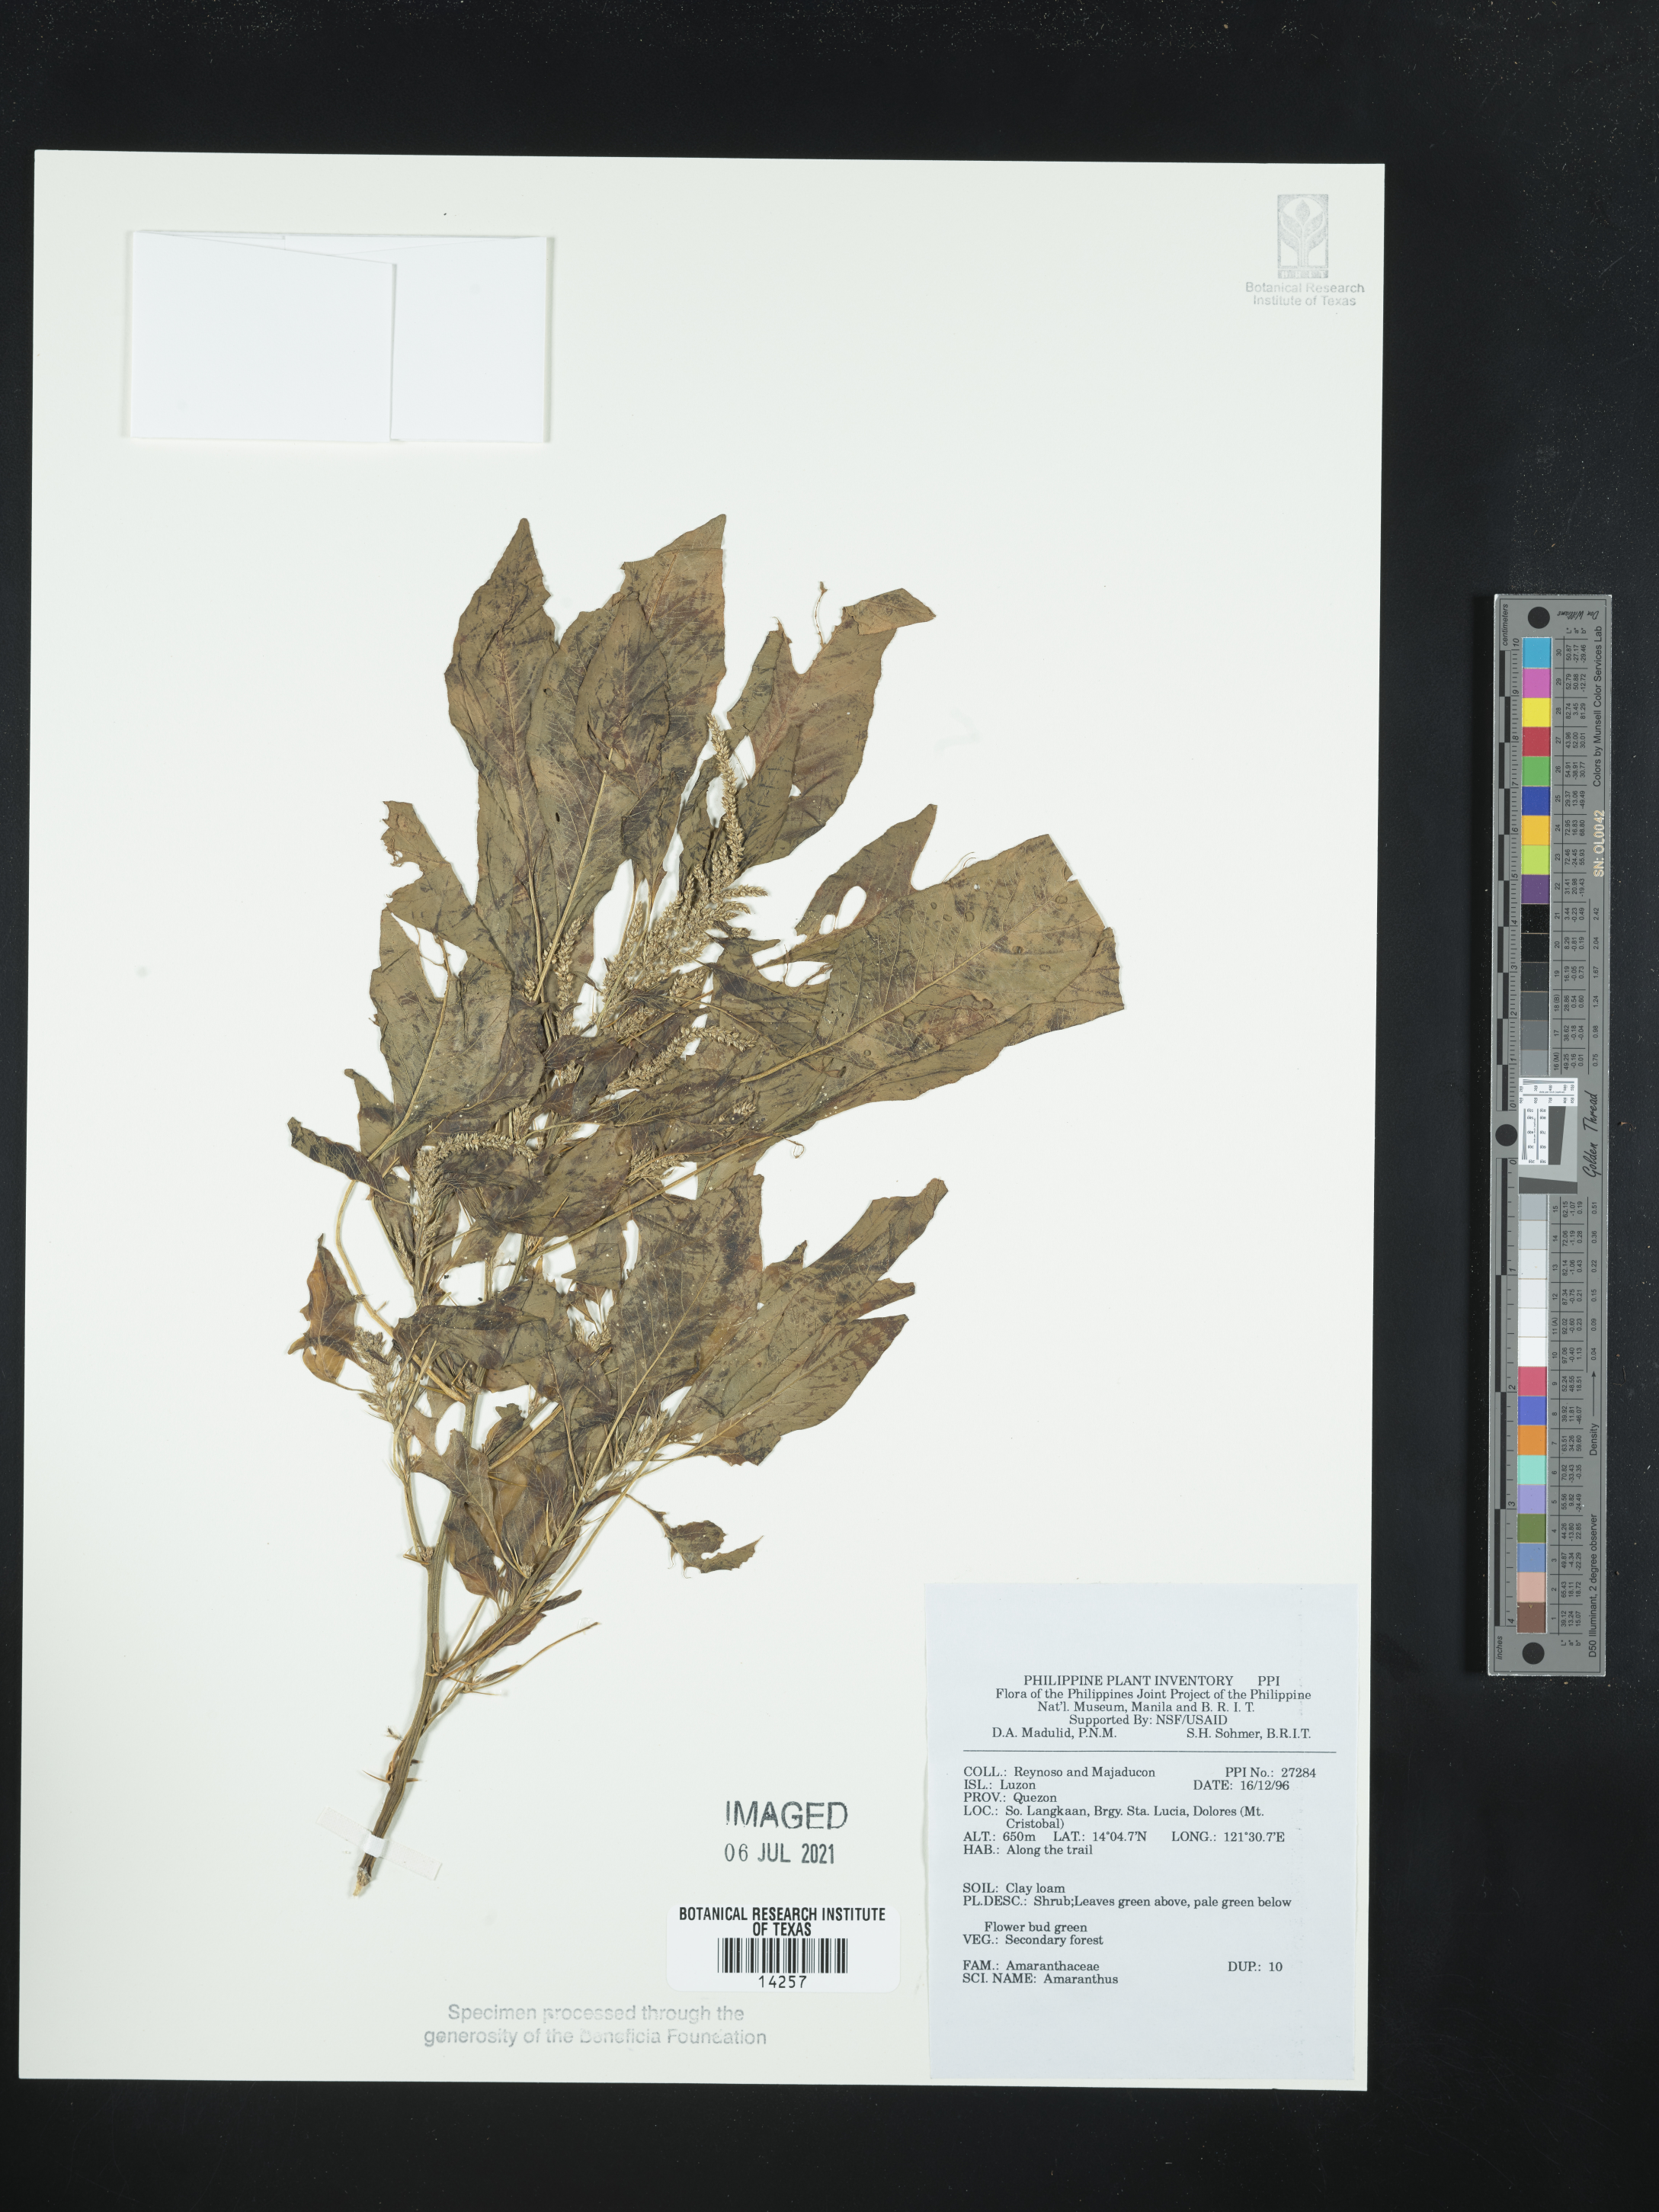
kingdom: Plantae
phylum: Tracheophyta
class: Magnoliopsida
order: Caryophyllales
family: Amaranthaceae
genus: Amaranthus
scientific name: Amaranthus
